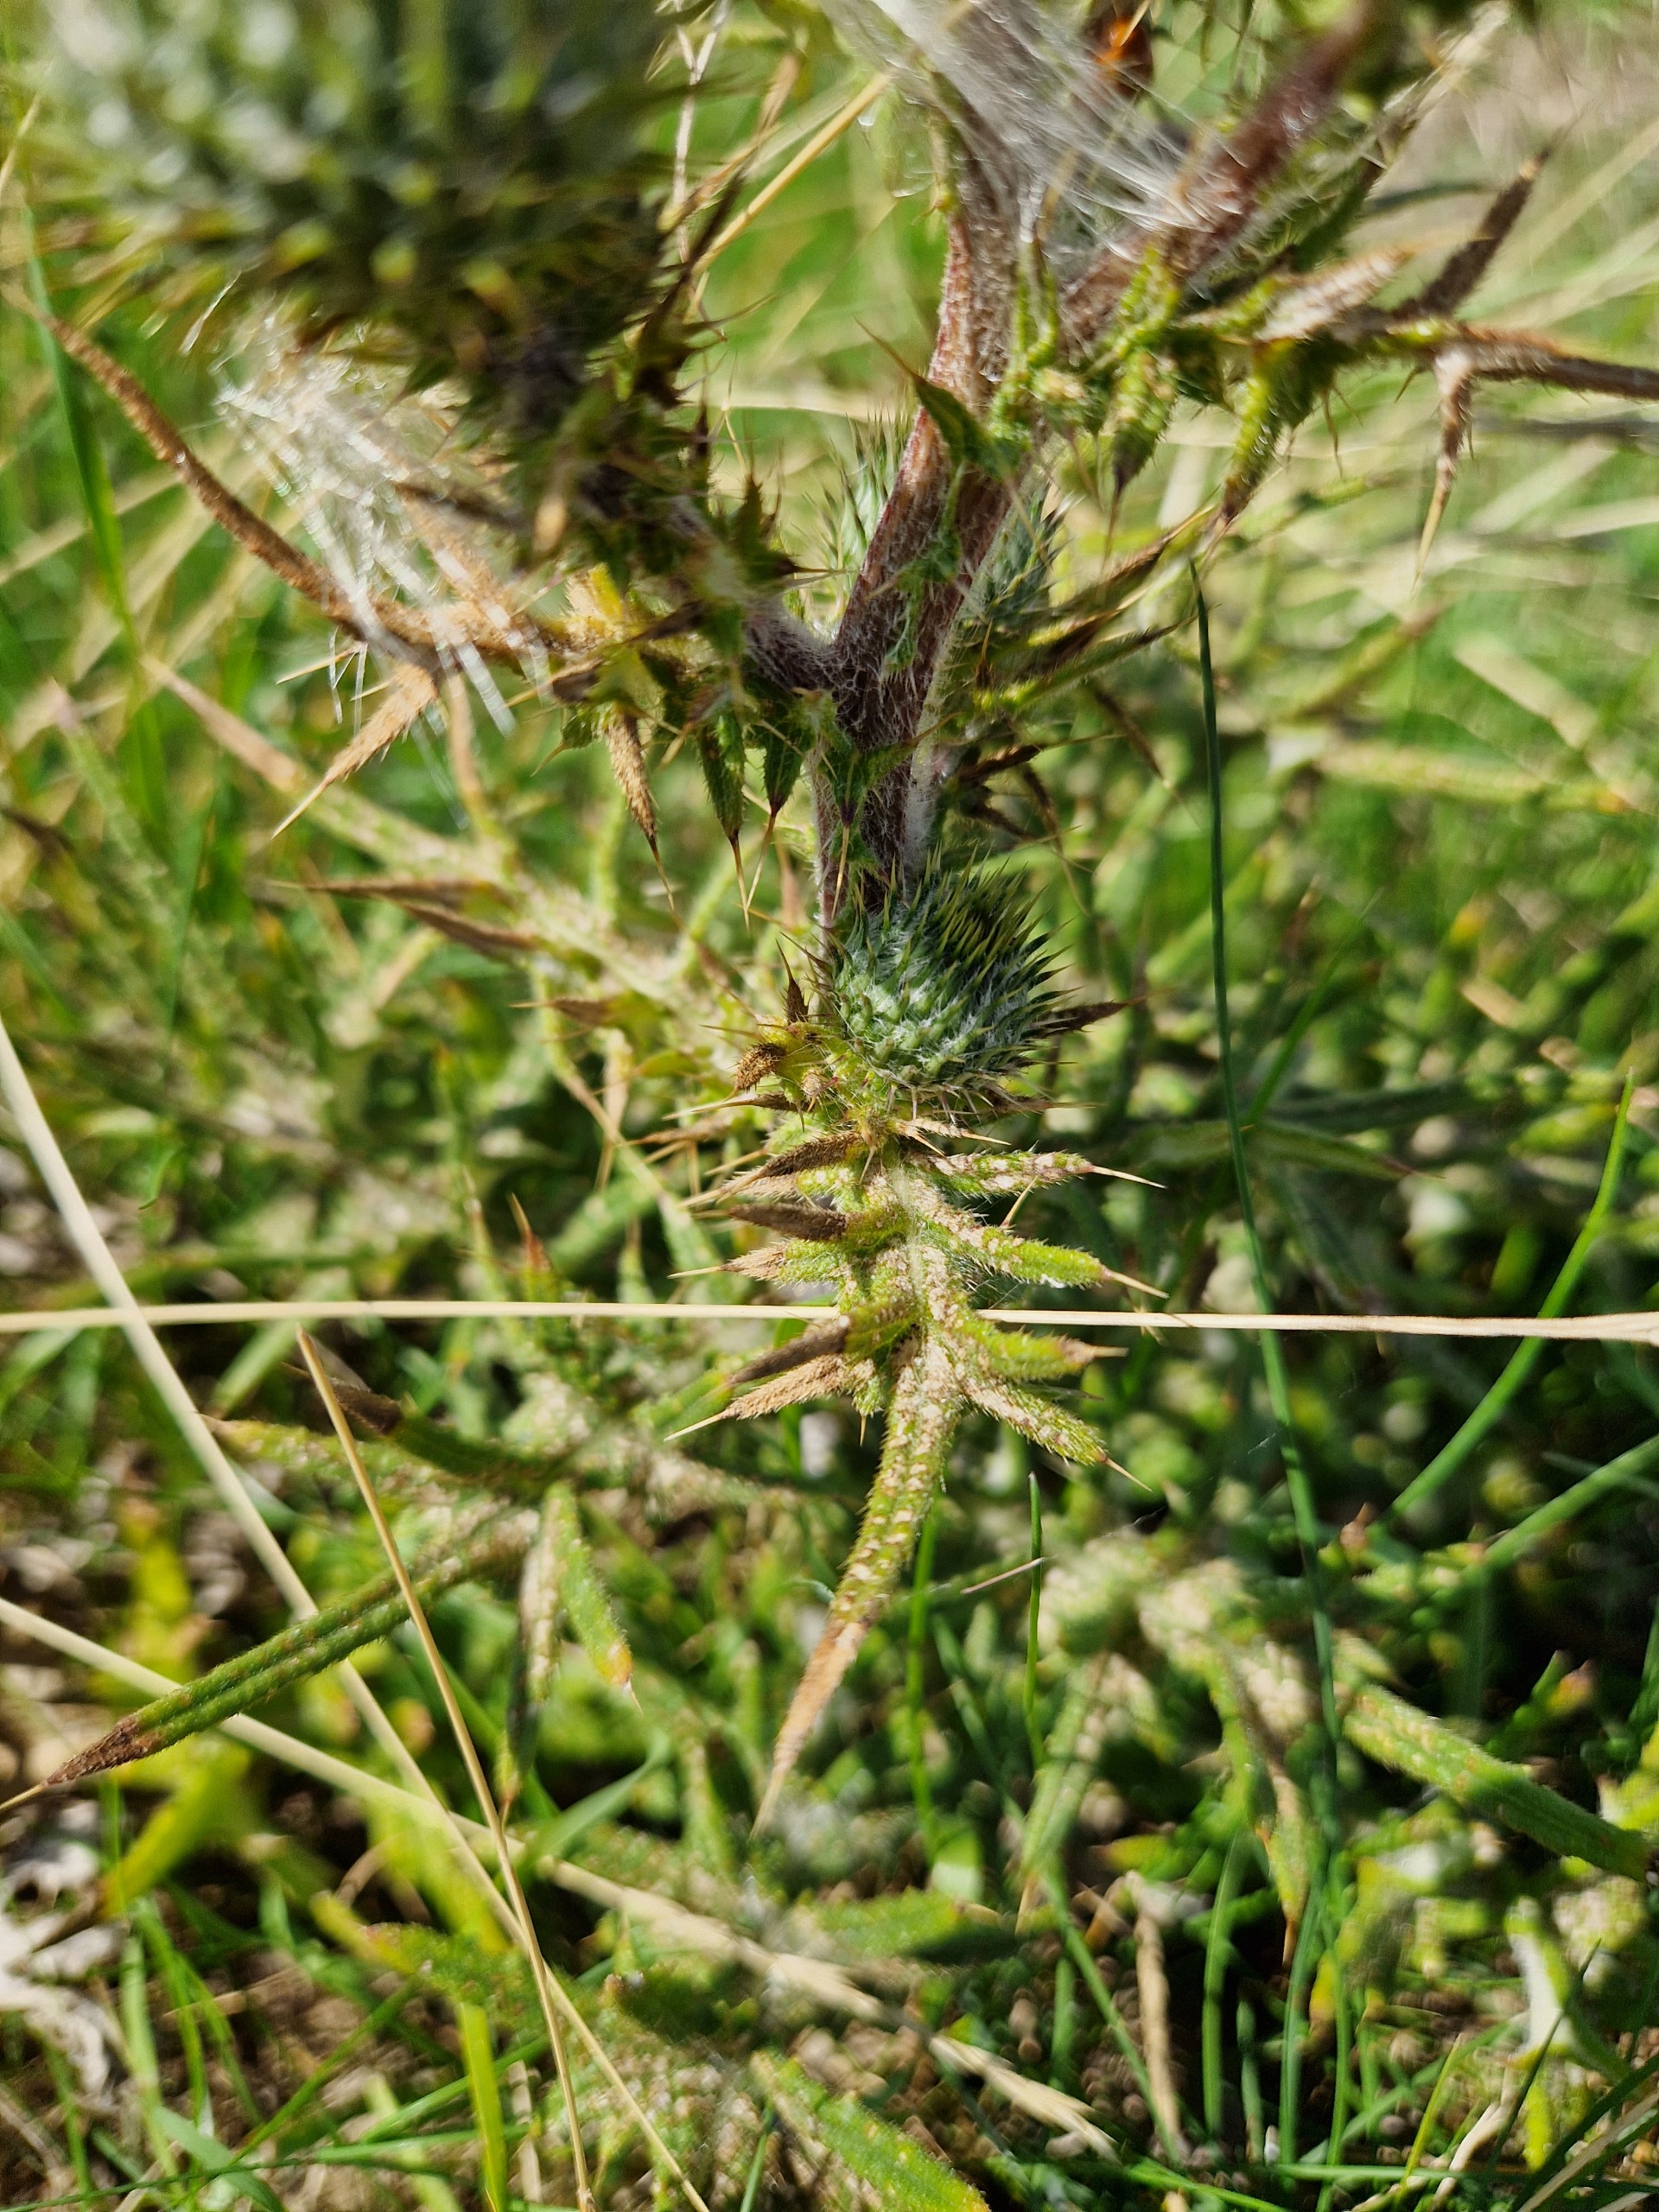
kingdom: Plantae
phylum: Tracheophyta
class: Magnoliopsida
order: Asterales
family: Asteraceae
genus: Cirsium
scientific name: Cirsium vulgare
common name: Horse-tidsel
